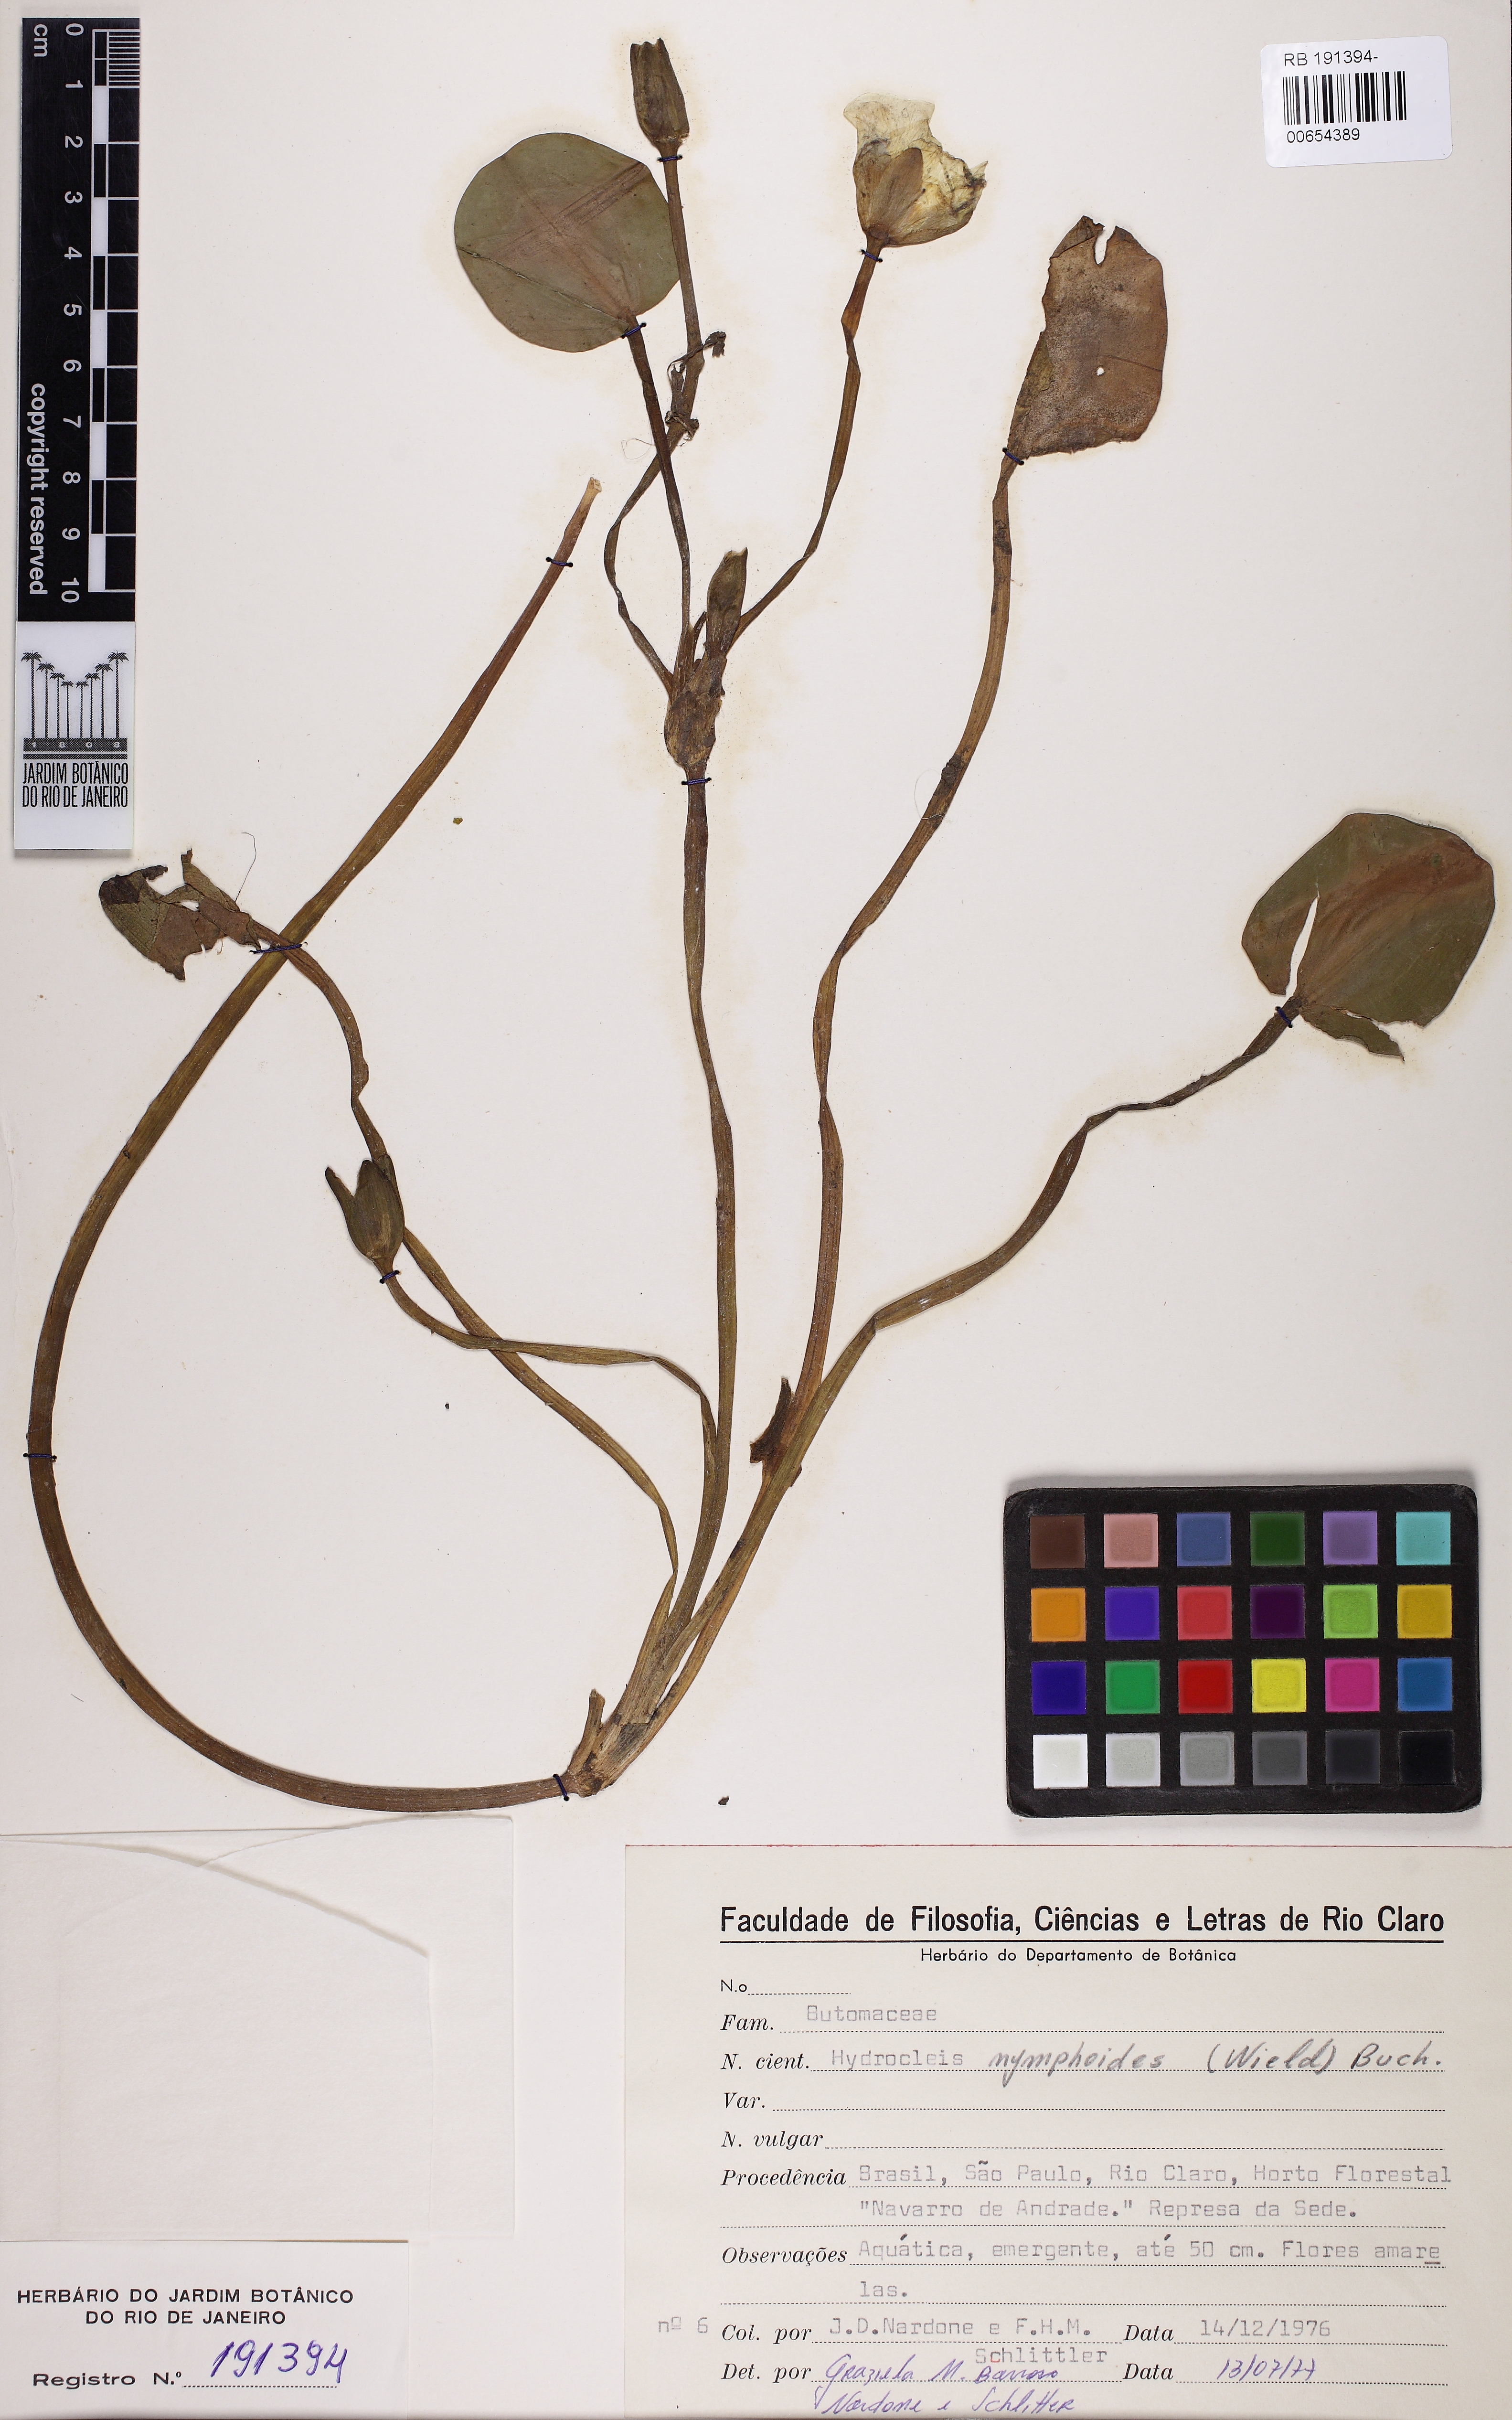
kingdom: Plantae
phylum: Tracheophyta
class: Liliopsida
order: Alismatales
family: Alismataceae
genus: Hydrocleys
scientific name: Hydrocleys nymphoides
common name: Water-poppy
